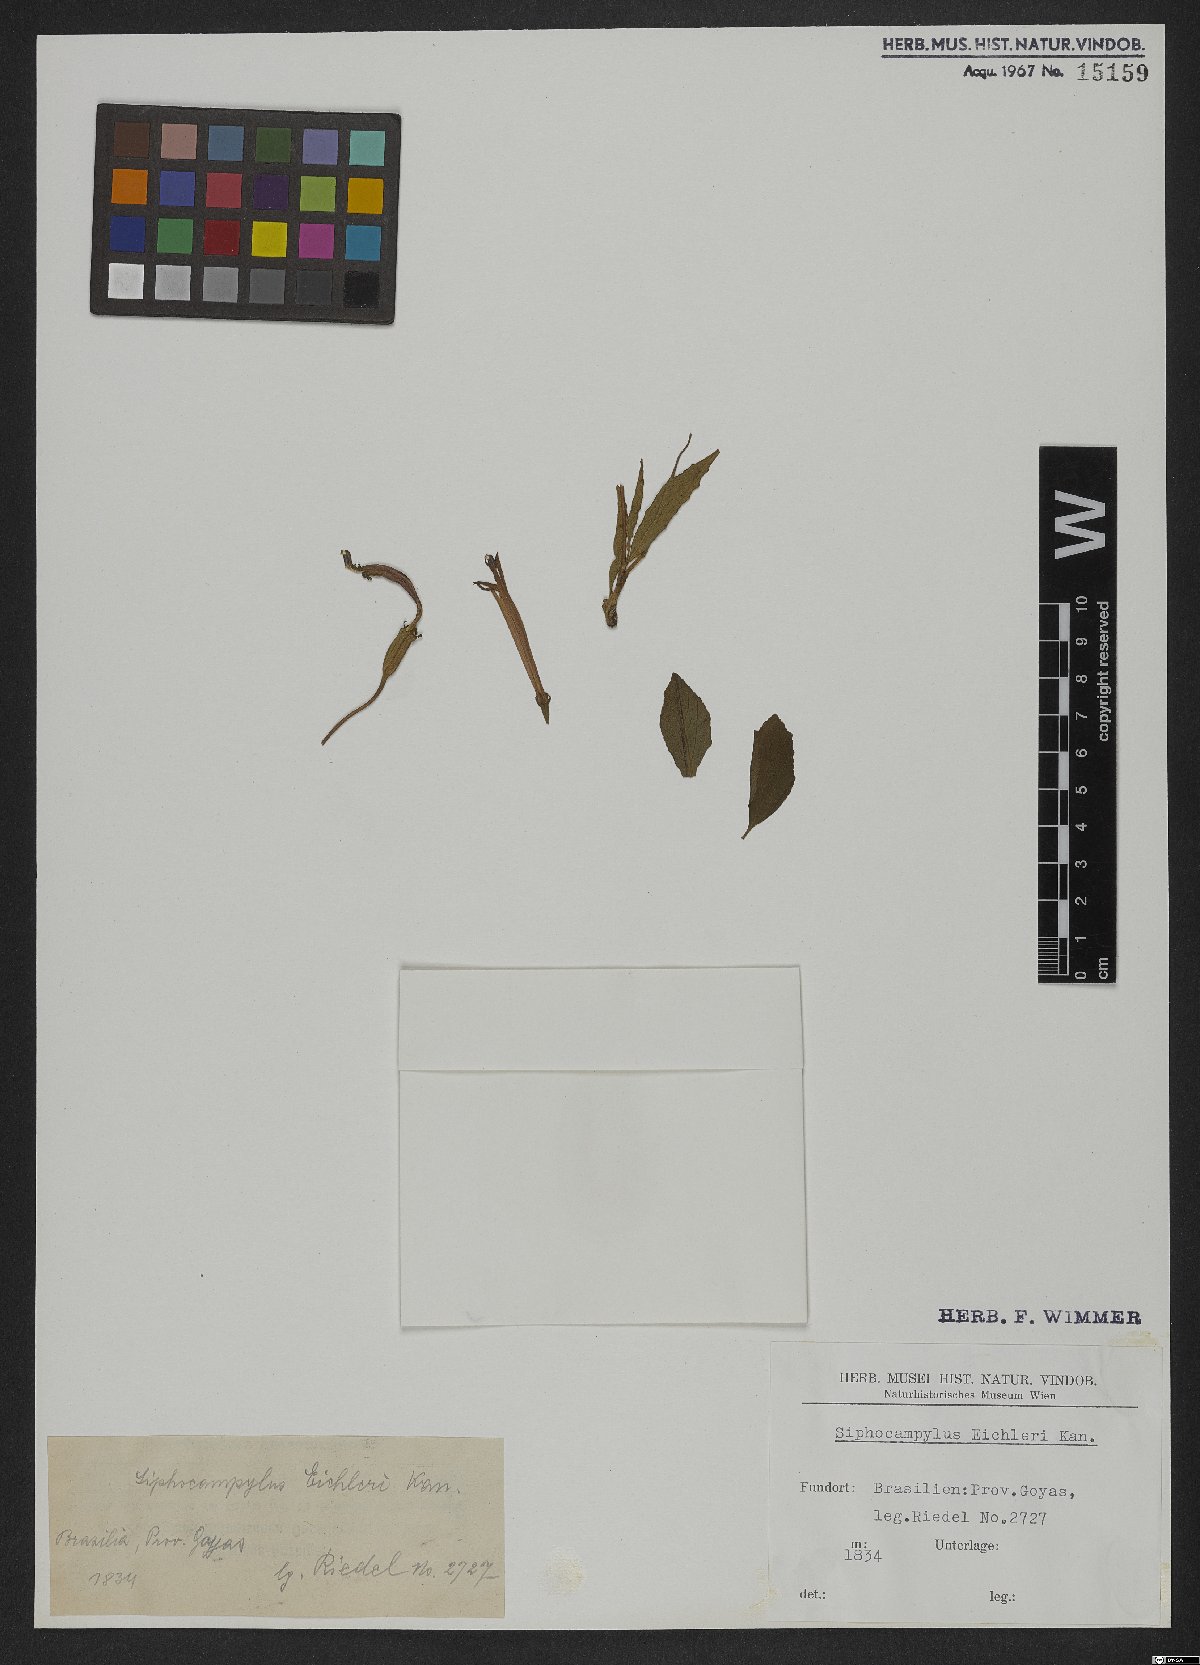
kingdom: Plantae
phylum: Tracheophyta
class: Magnoliopsida
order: Asterales
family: Campanulaceae
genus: Siphocampylus
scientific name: Siphocampylus eichleri
